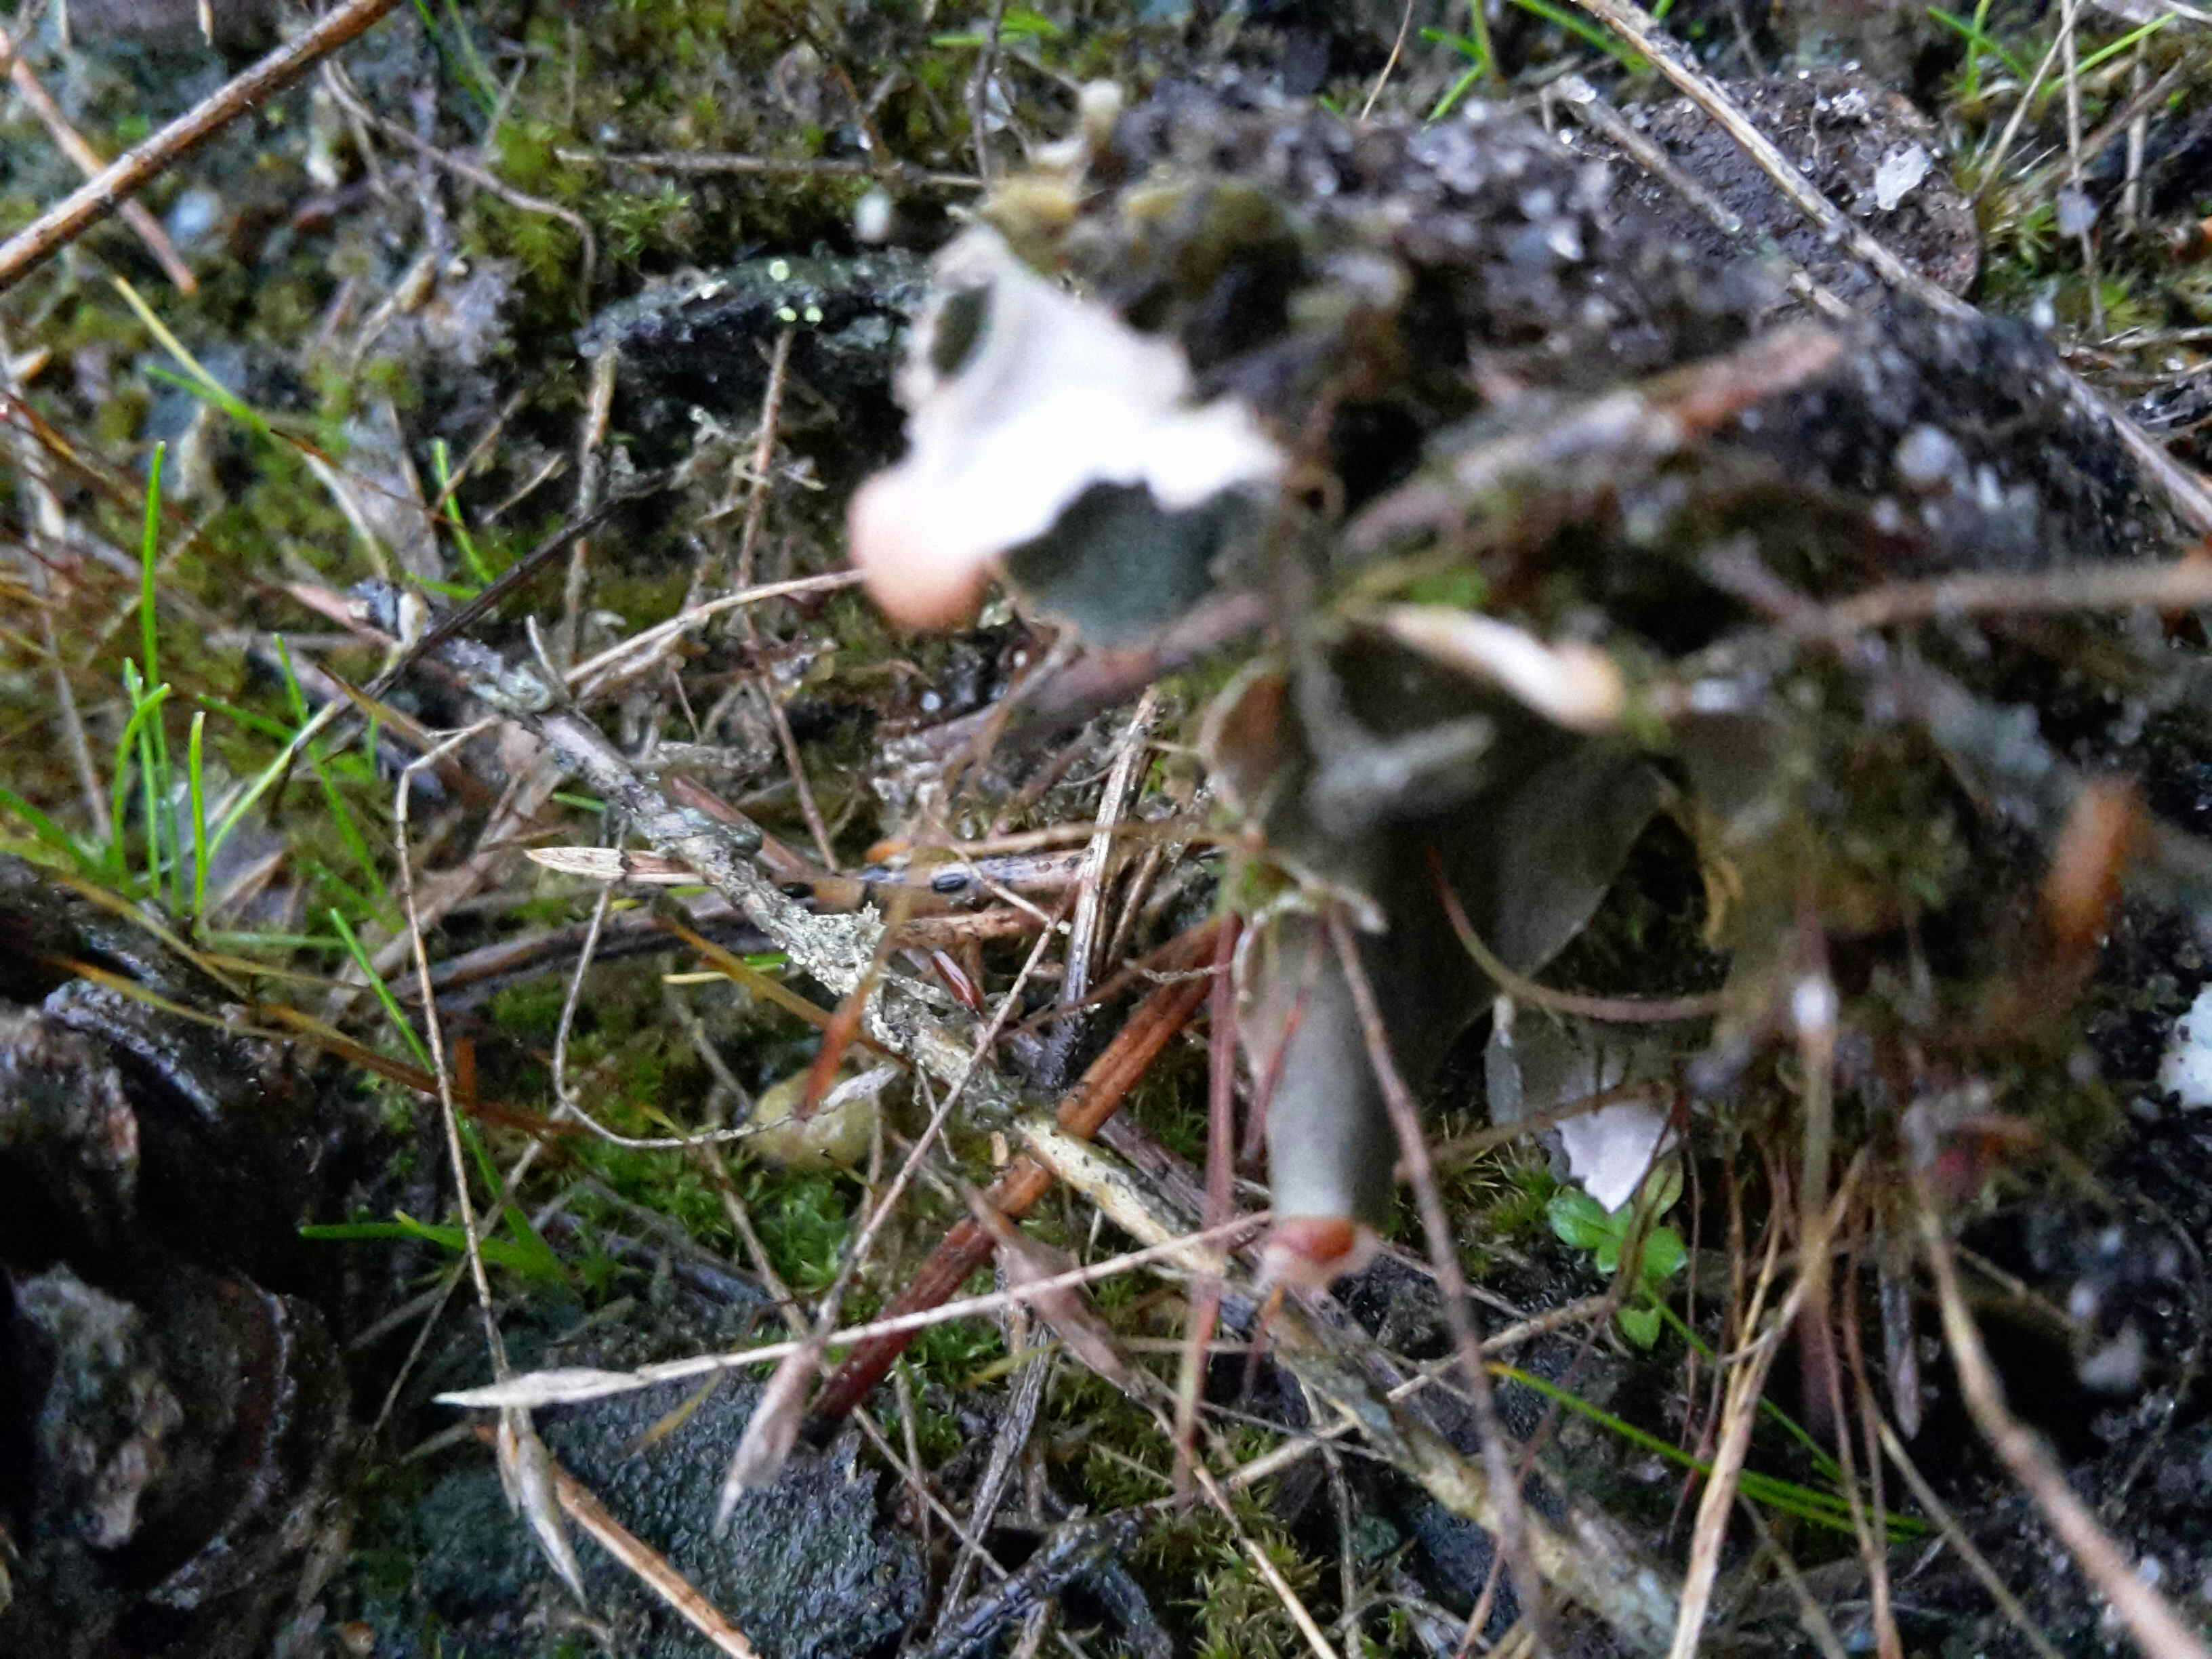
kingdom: Fungi
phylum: Ascomycota
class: Lecanoromycetes
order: Peltigerales
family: Peltigeraceae
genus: Peltigera
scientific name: Peltigera didactyla
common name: liden skjoldlav
